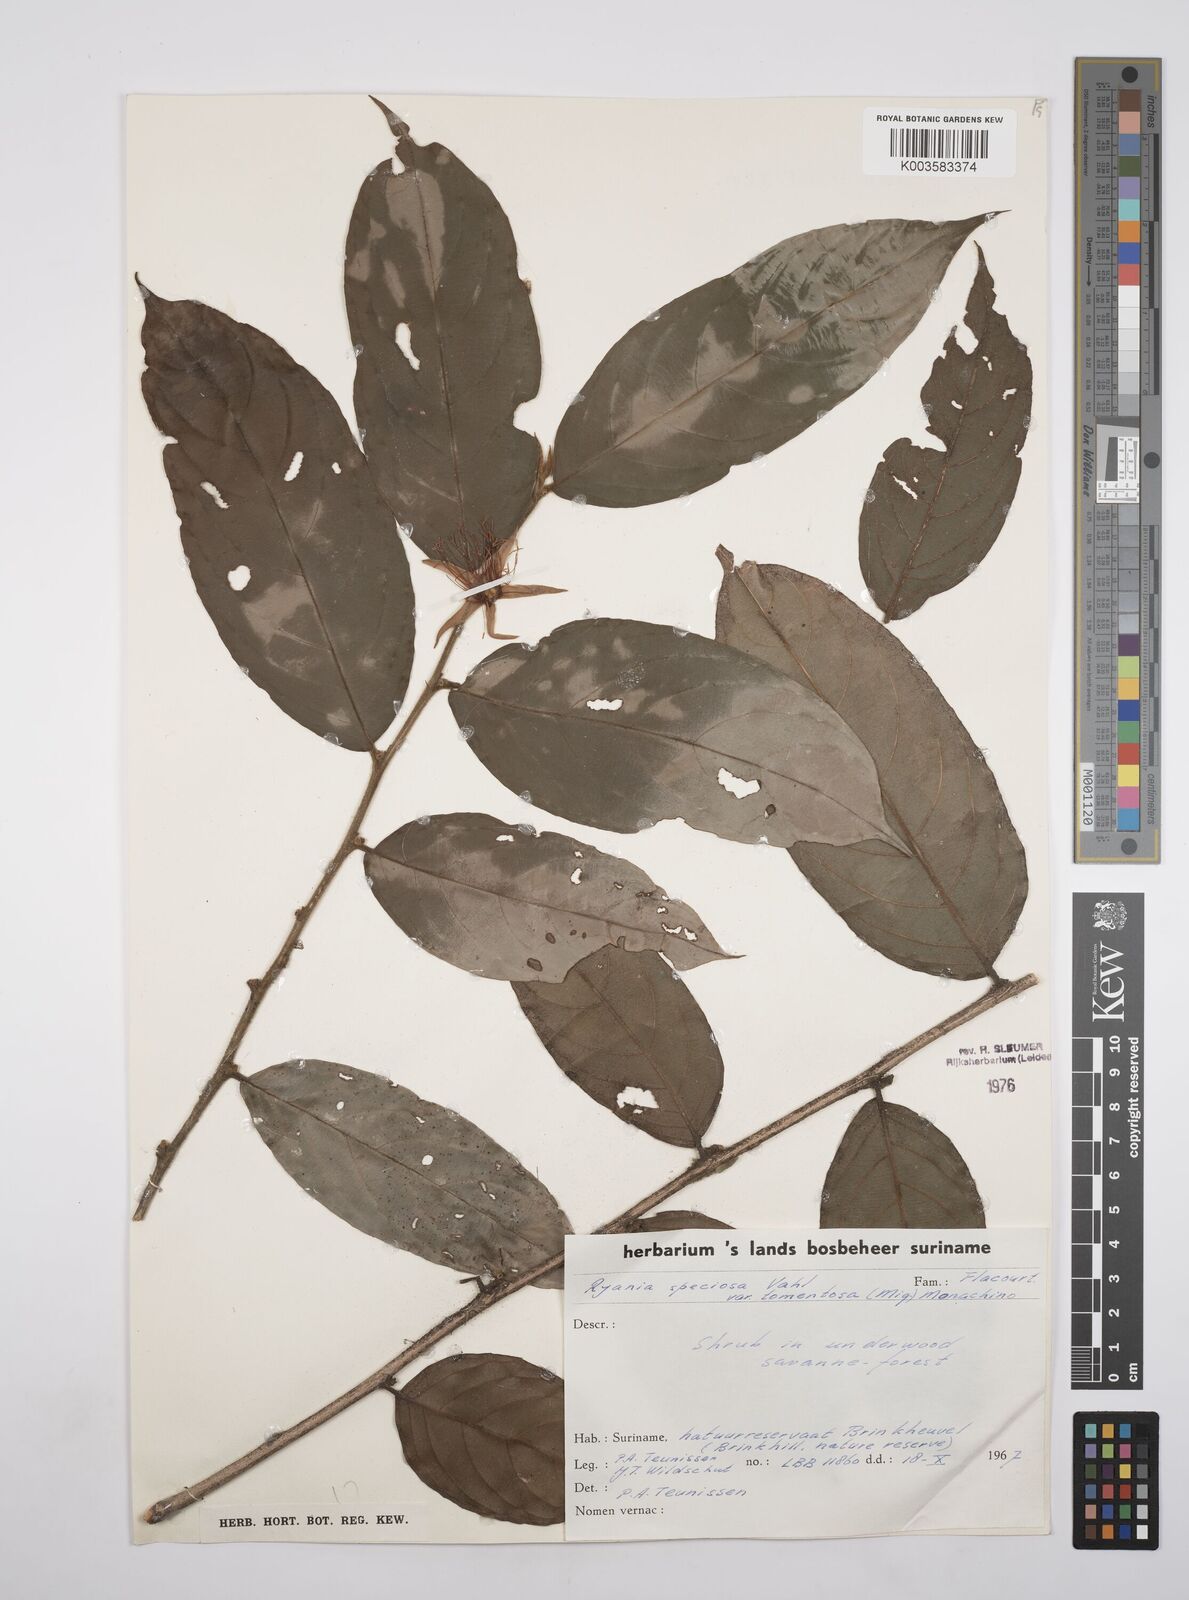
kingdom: Plantae
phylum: Tracheophyta
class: Magnoliopsida
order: Malpighiales
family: Salicaceae
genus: Ryania
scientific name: Ryania speciosa
